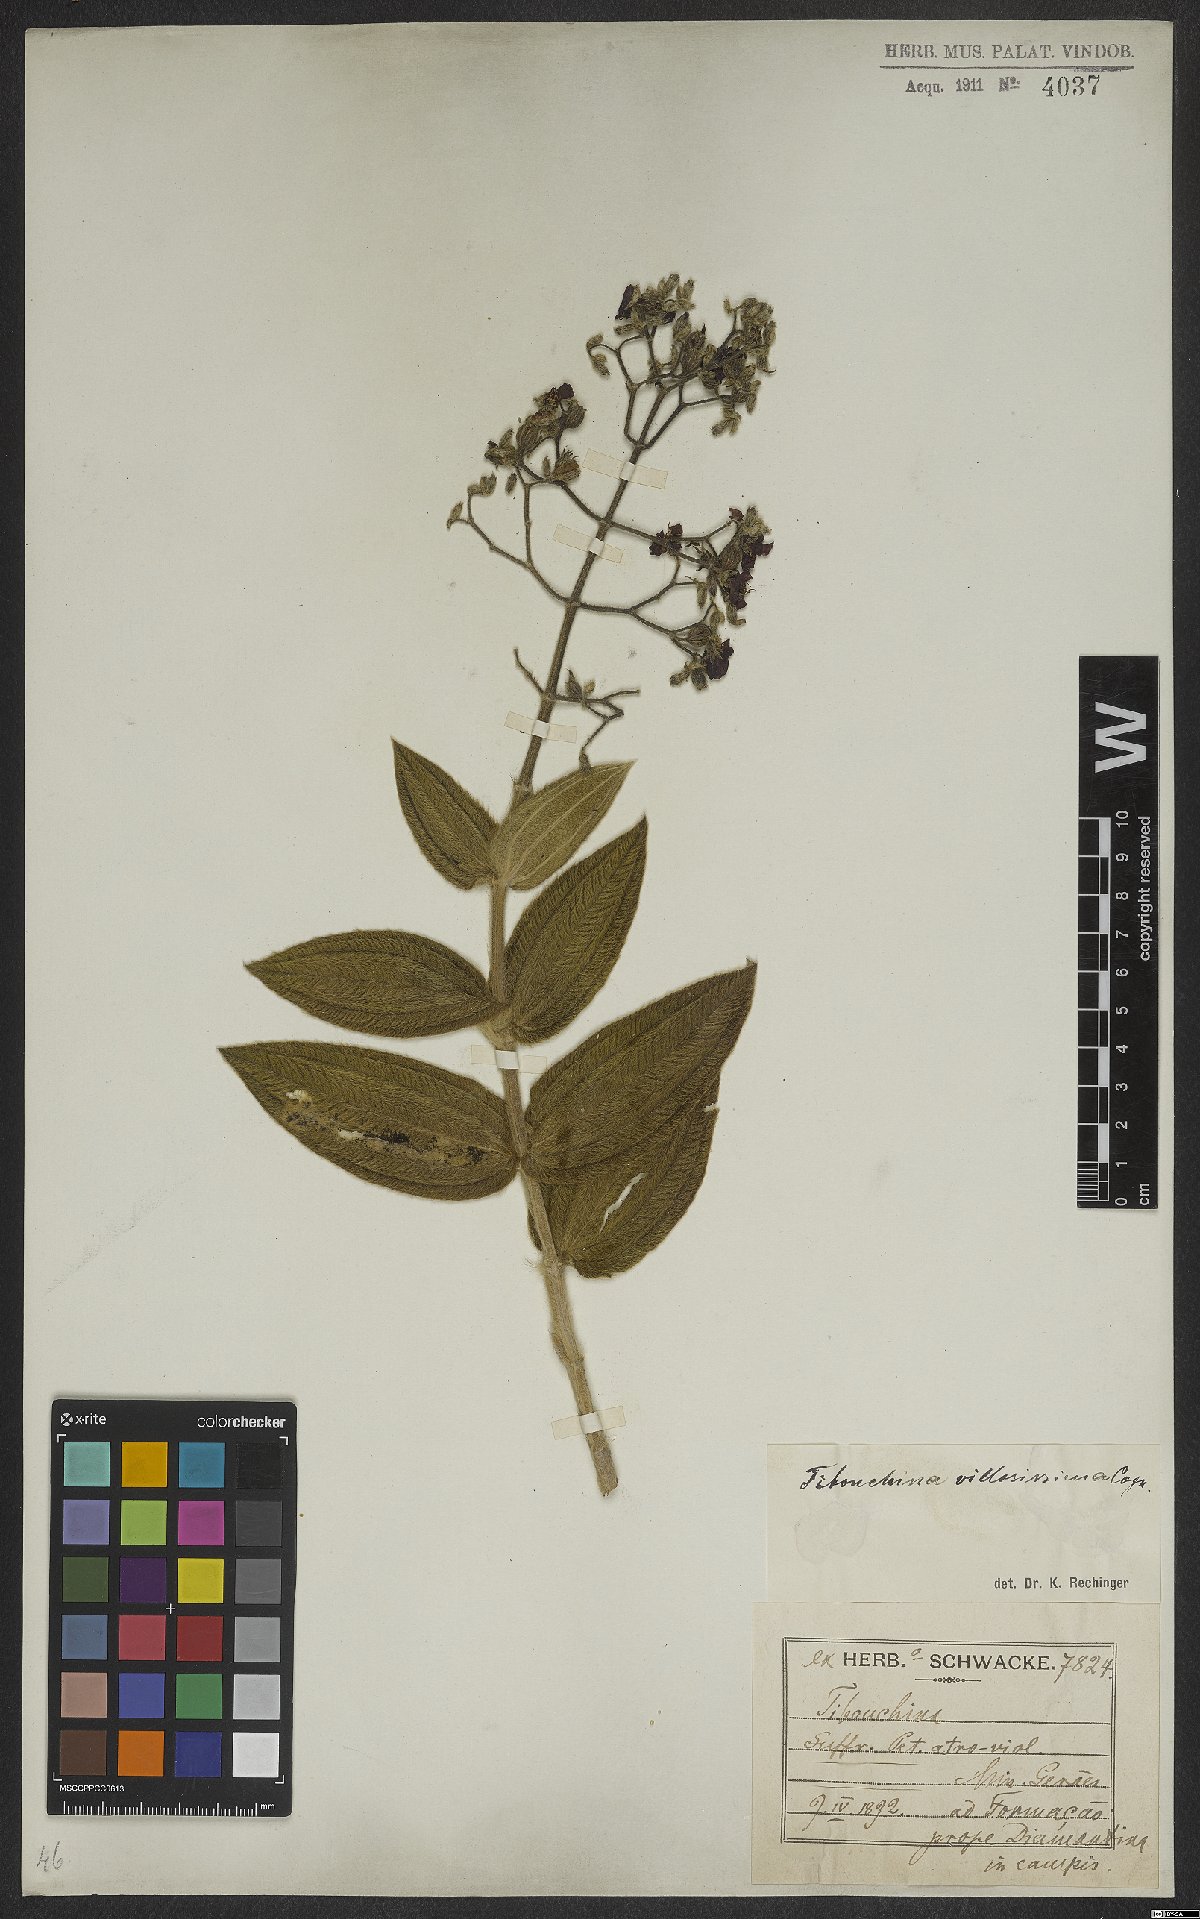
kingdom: Plantae
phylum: Tracheophyta
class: Magnoliopsida
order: Myrtales
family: Melastomataceae
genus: Pleroma
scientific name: Pleroma villosissimum
